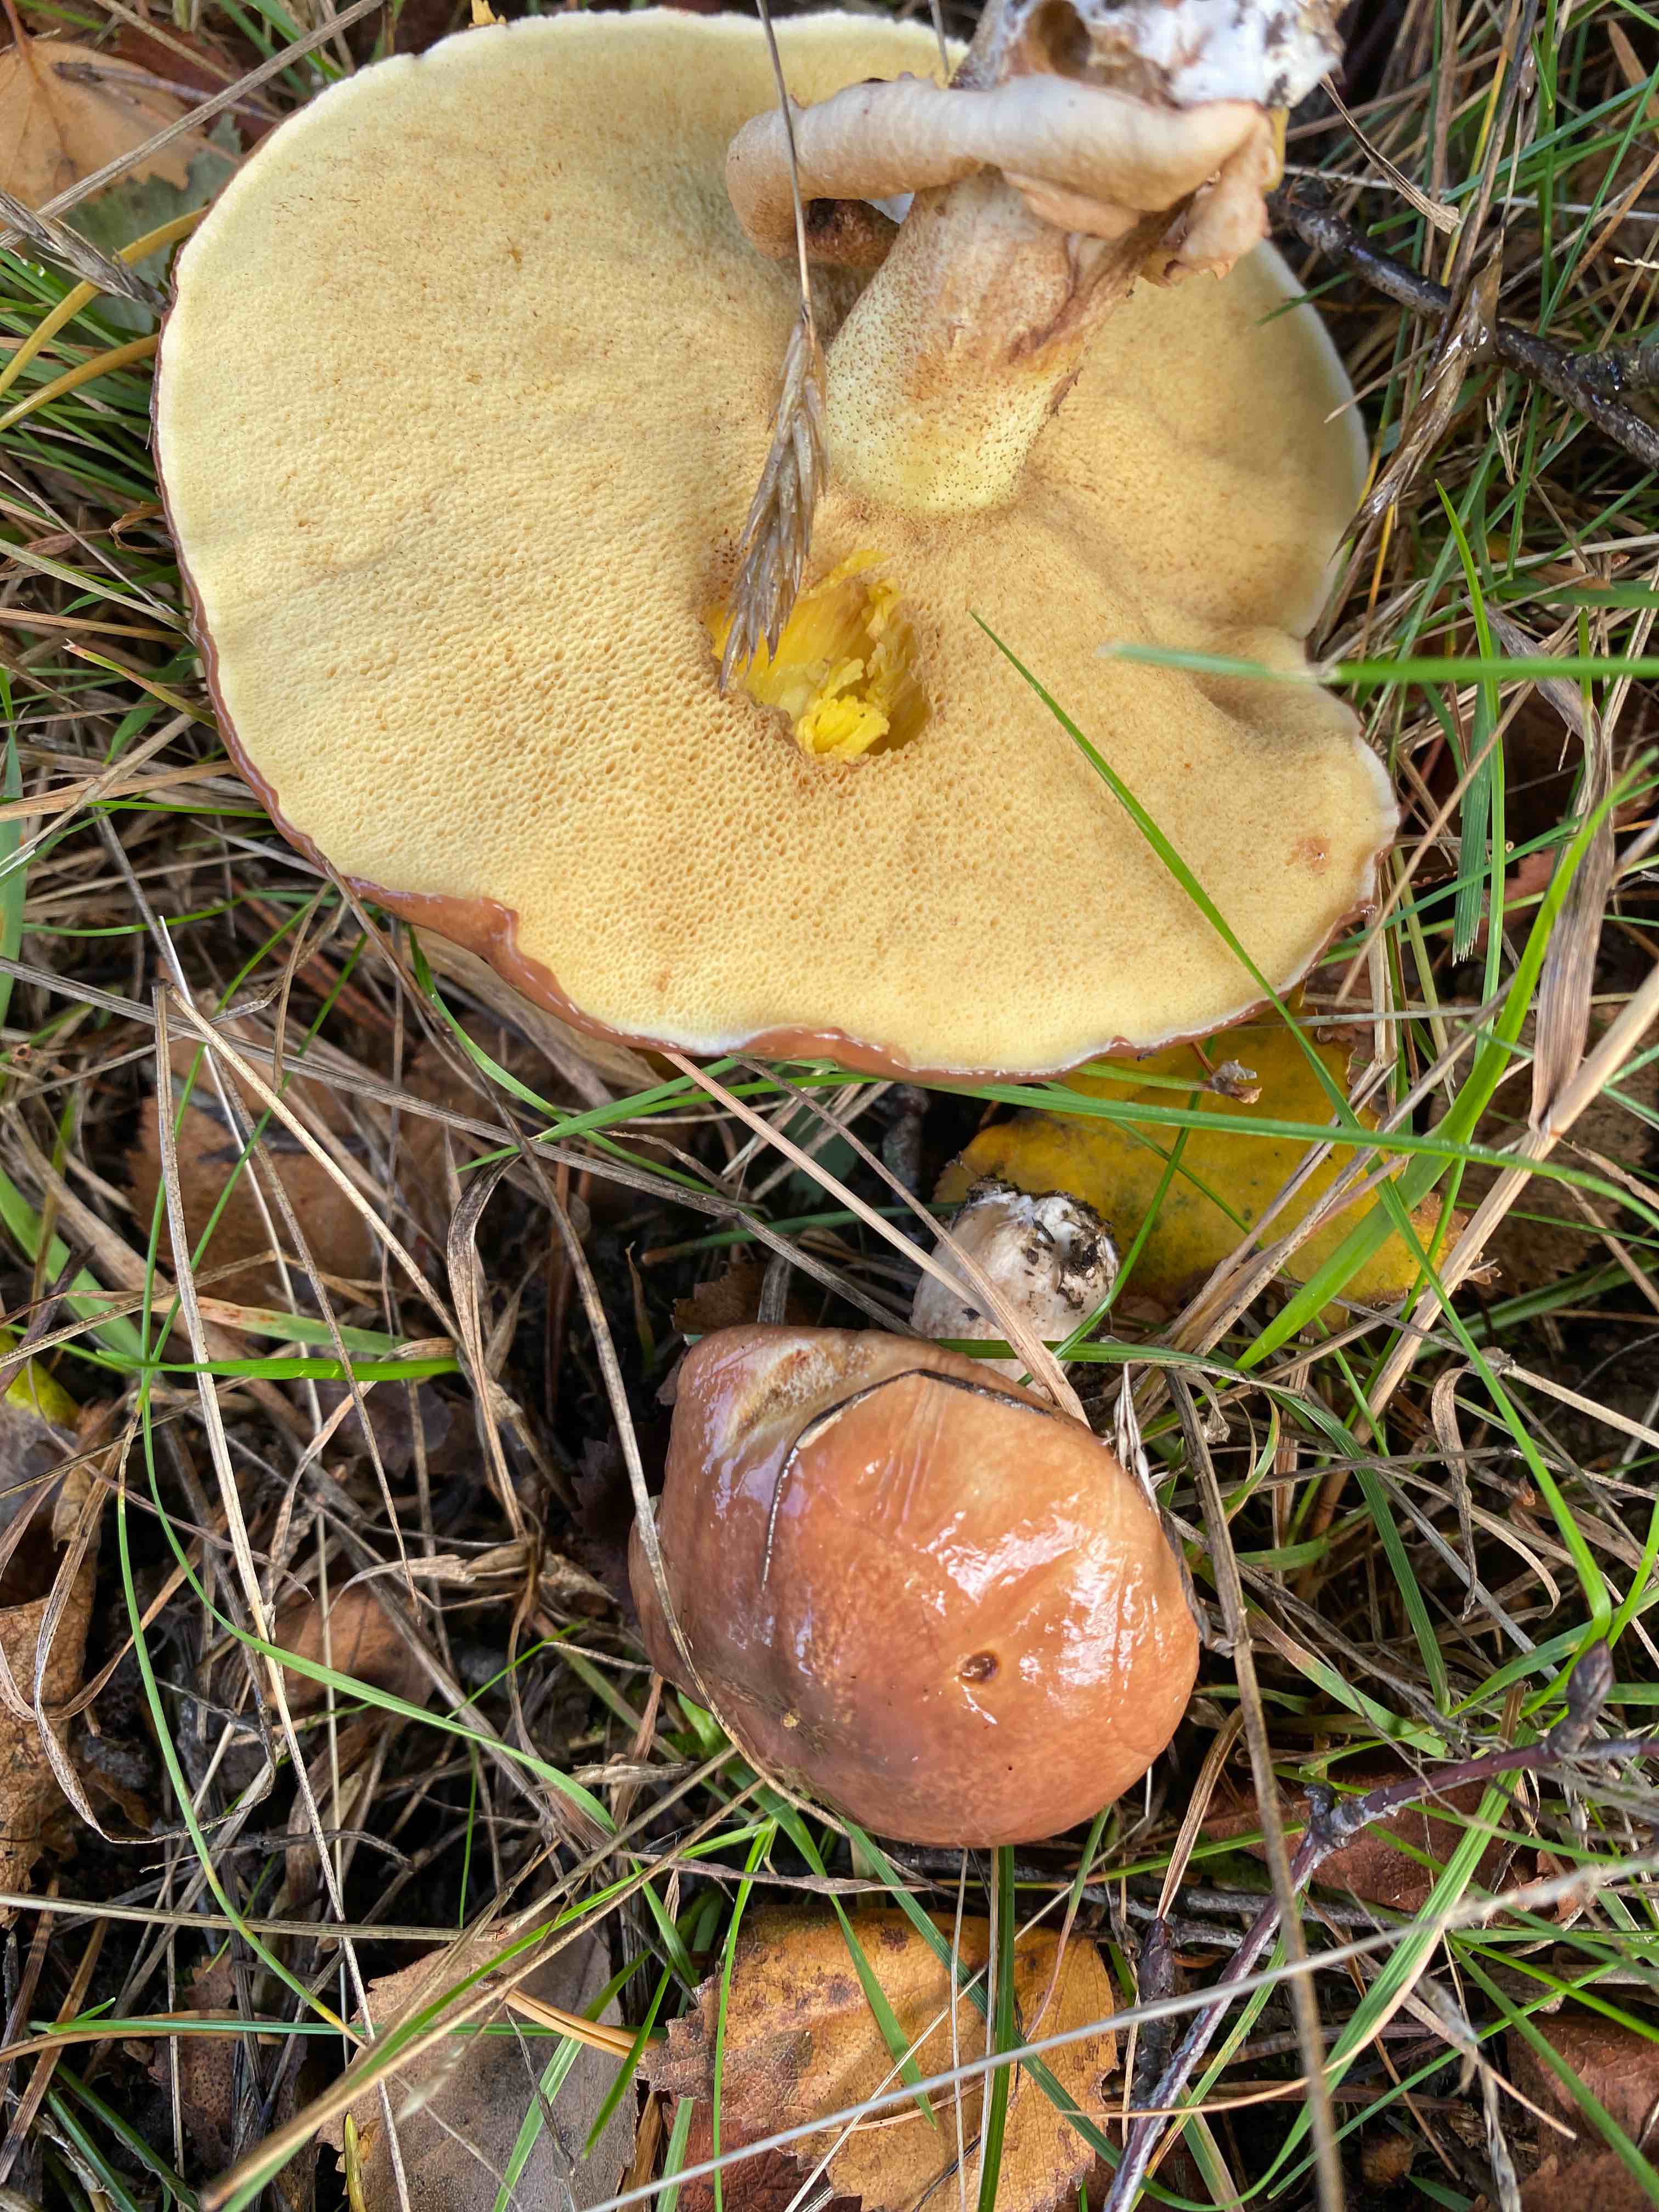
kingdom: Fungi
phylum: Basidiomycota
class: Agaricomycetes
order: Boletales
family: Suillaceae
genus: Suillus
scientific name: Suillus luteus
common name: brungul slimrørhat
